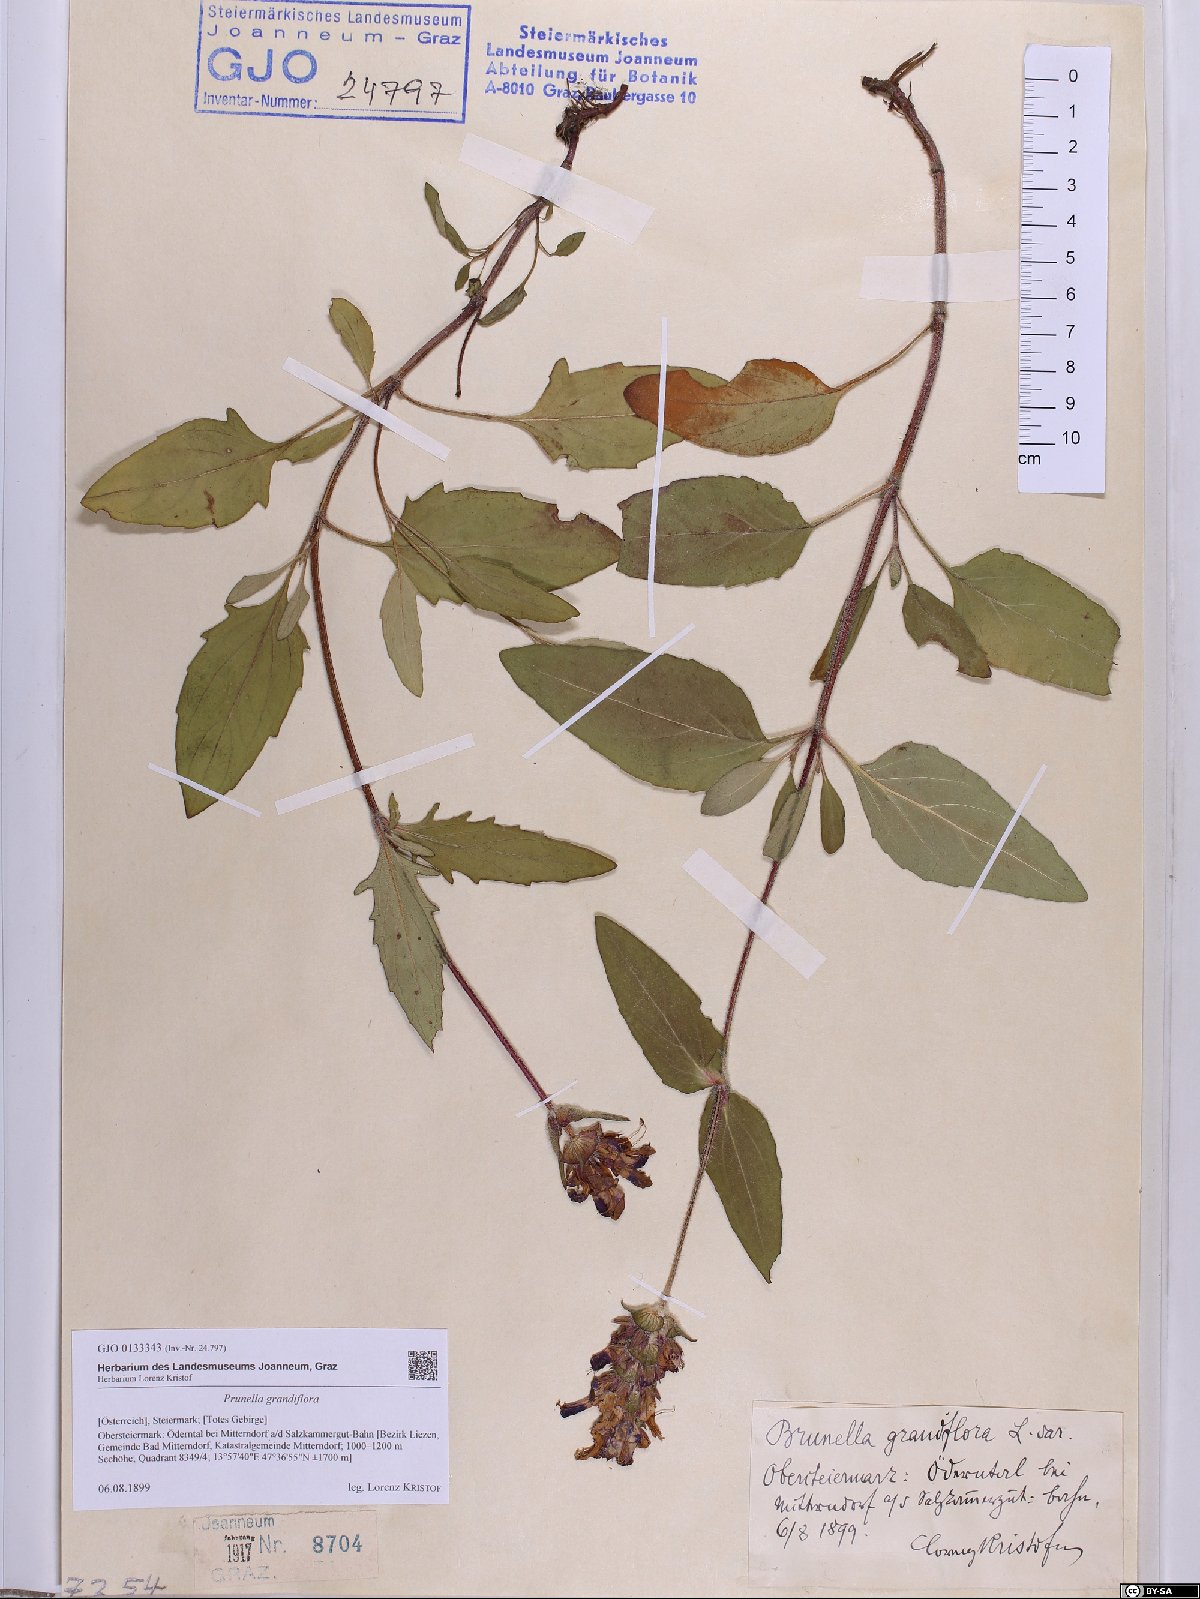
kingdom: Plantae
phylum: Tracheophyta
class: Magnoliopsida
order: Lamiales
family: Lamiaceae
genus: Prunella
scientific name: Prunella grandiflora
